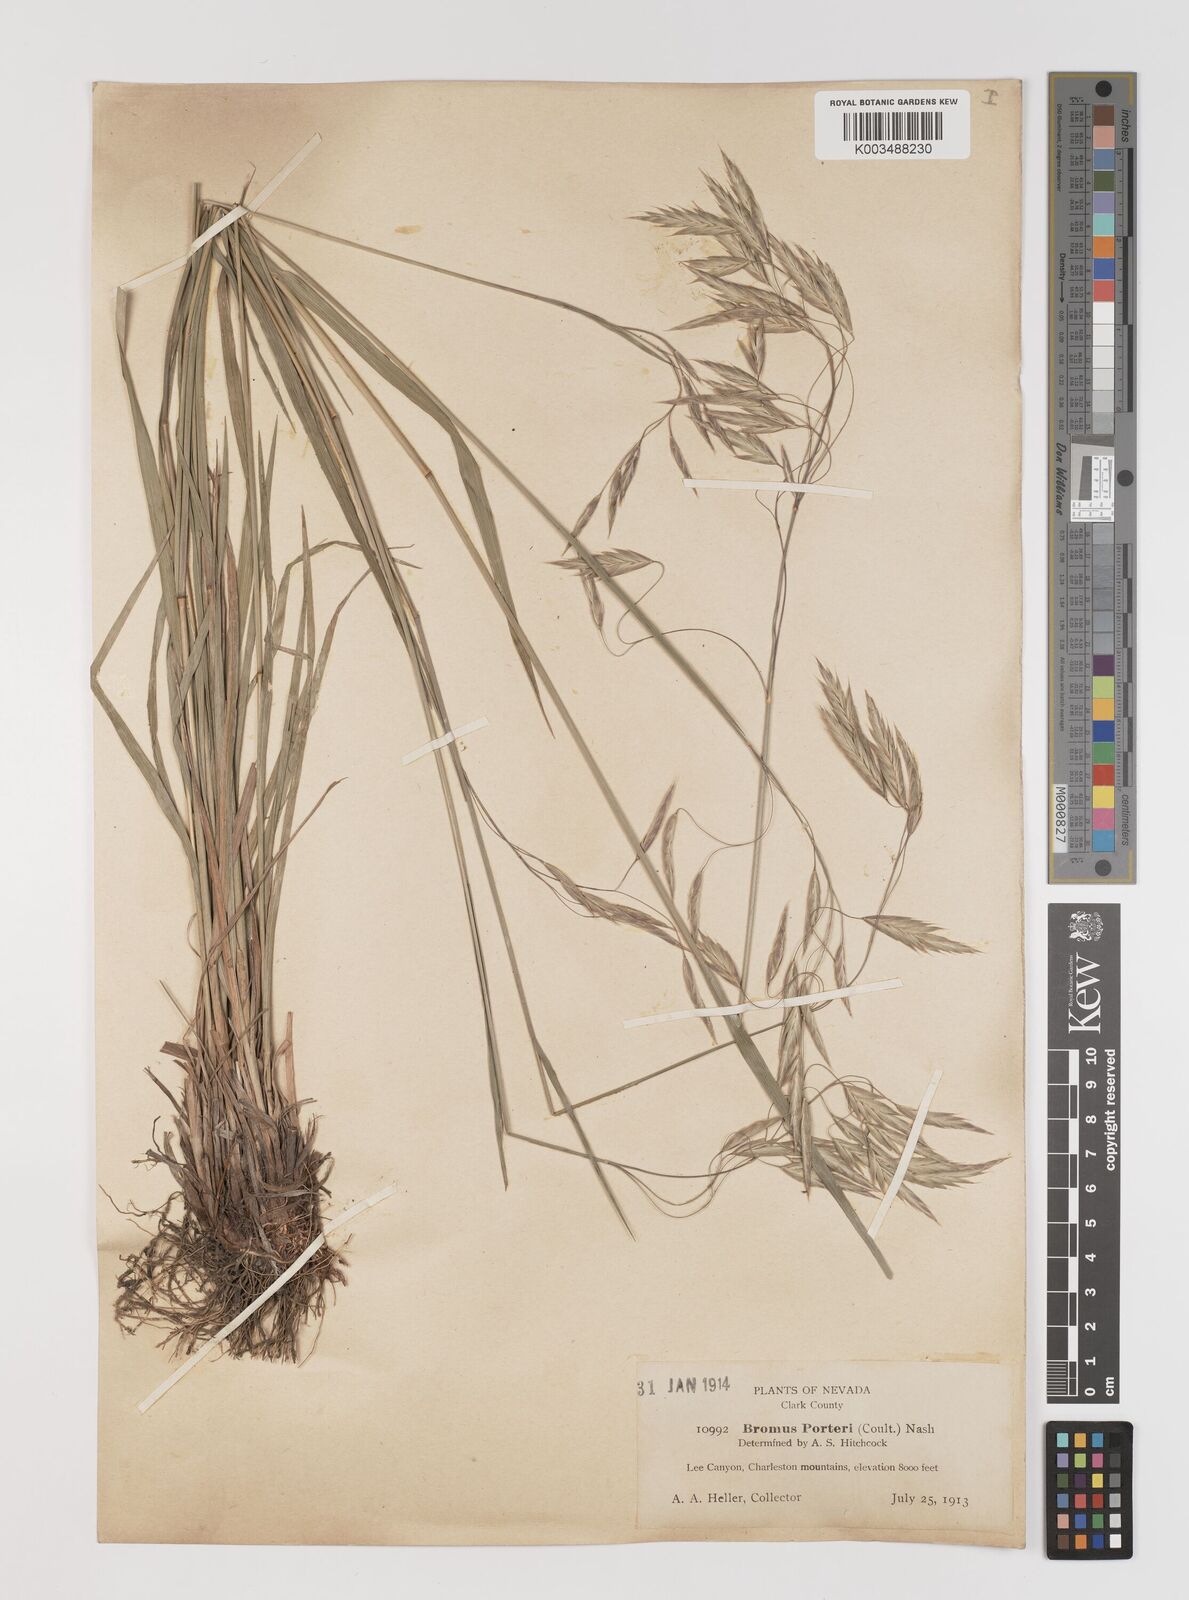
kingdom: Plantae
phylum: Tracheophyta
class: Liliopsida
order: Poales
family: Poaceae
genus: Bromus
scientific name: Bromus porteri
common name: Nodding brome
